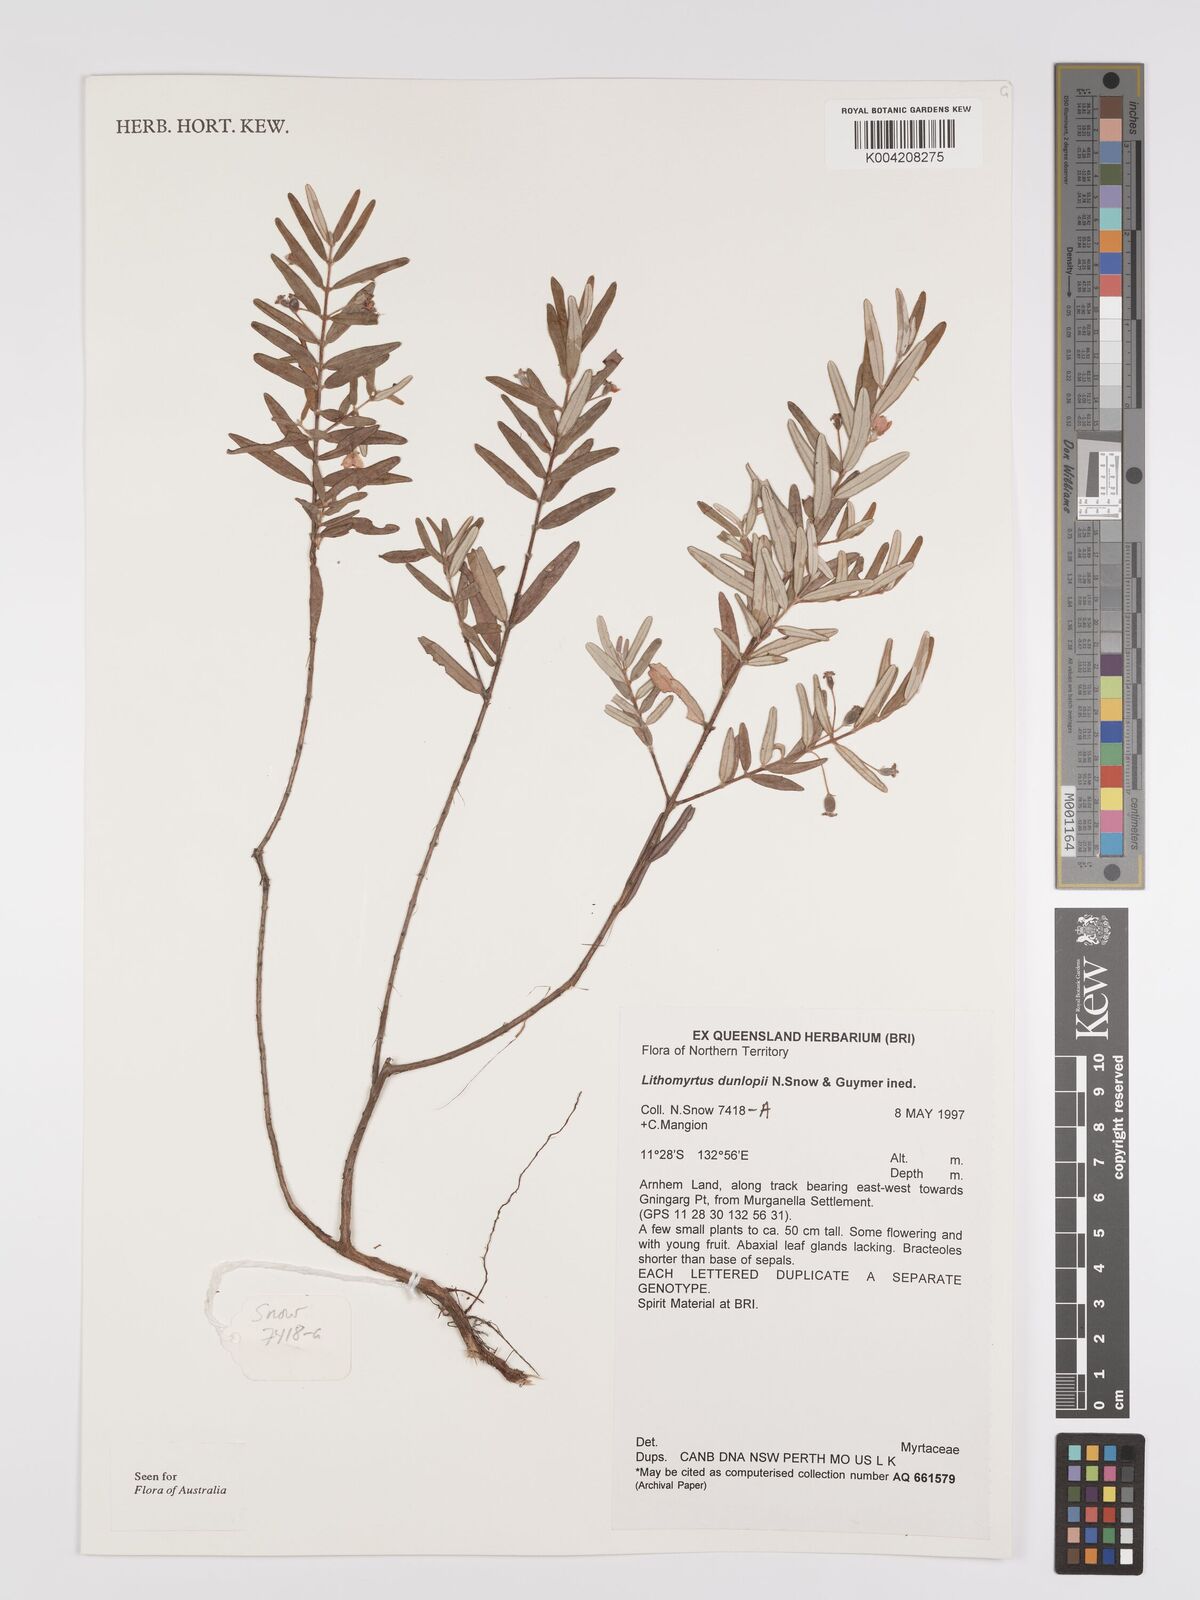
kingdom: Plantae
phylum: Tracheophyta
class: Magnoliopsida
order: Myrtales
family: Myrtaceae
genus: Lithomyrtus
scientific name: Lithomyrtus dunlopii
